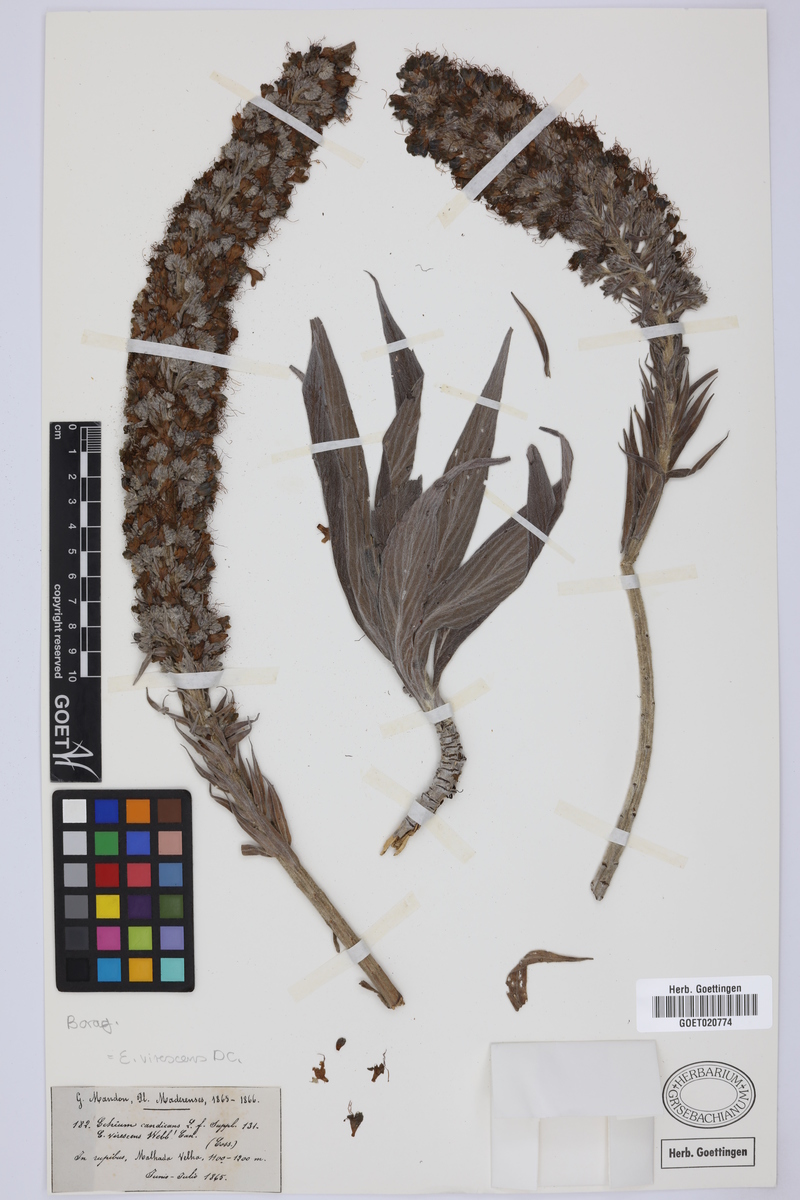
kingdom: Plantae
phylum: Tracheophyta
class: Magnoliopsida
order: Boraginales
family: Boraginaceae
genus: Echium
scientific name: Echium virescens
